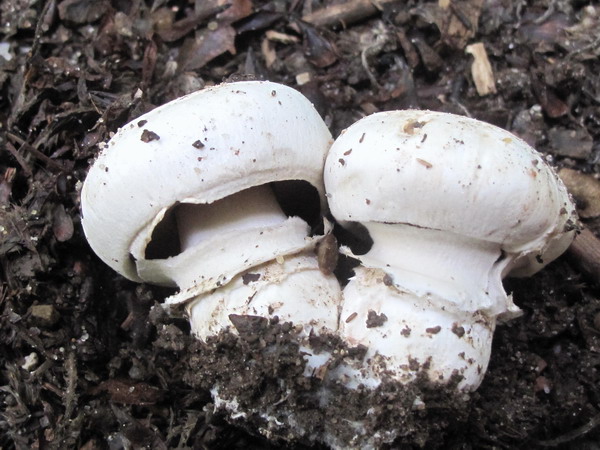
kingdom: Fungi
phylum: Basidiomycota
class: Agaricomycetes
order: Agaricales
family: Agaricaceae
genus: Agaricus
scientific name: Agaricus bitorquis
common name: vej-champignon
